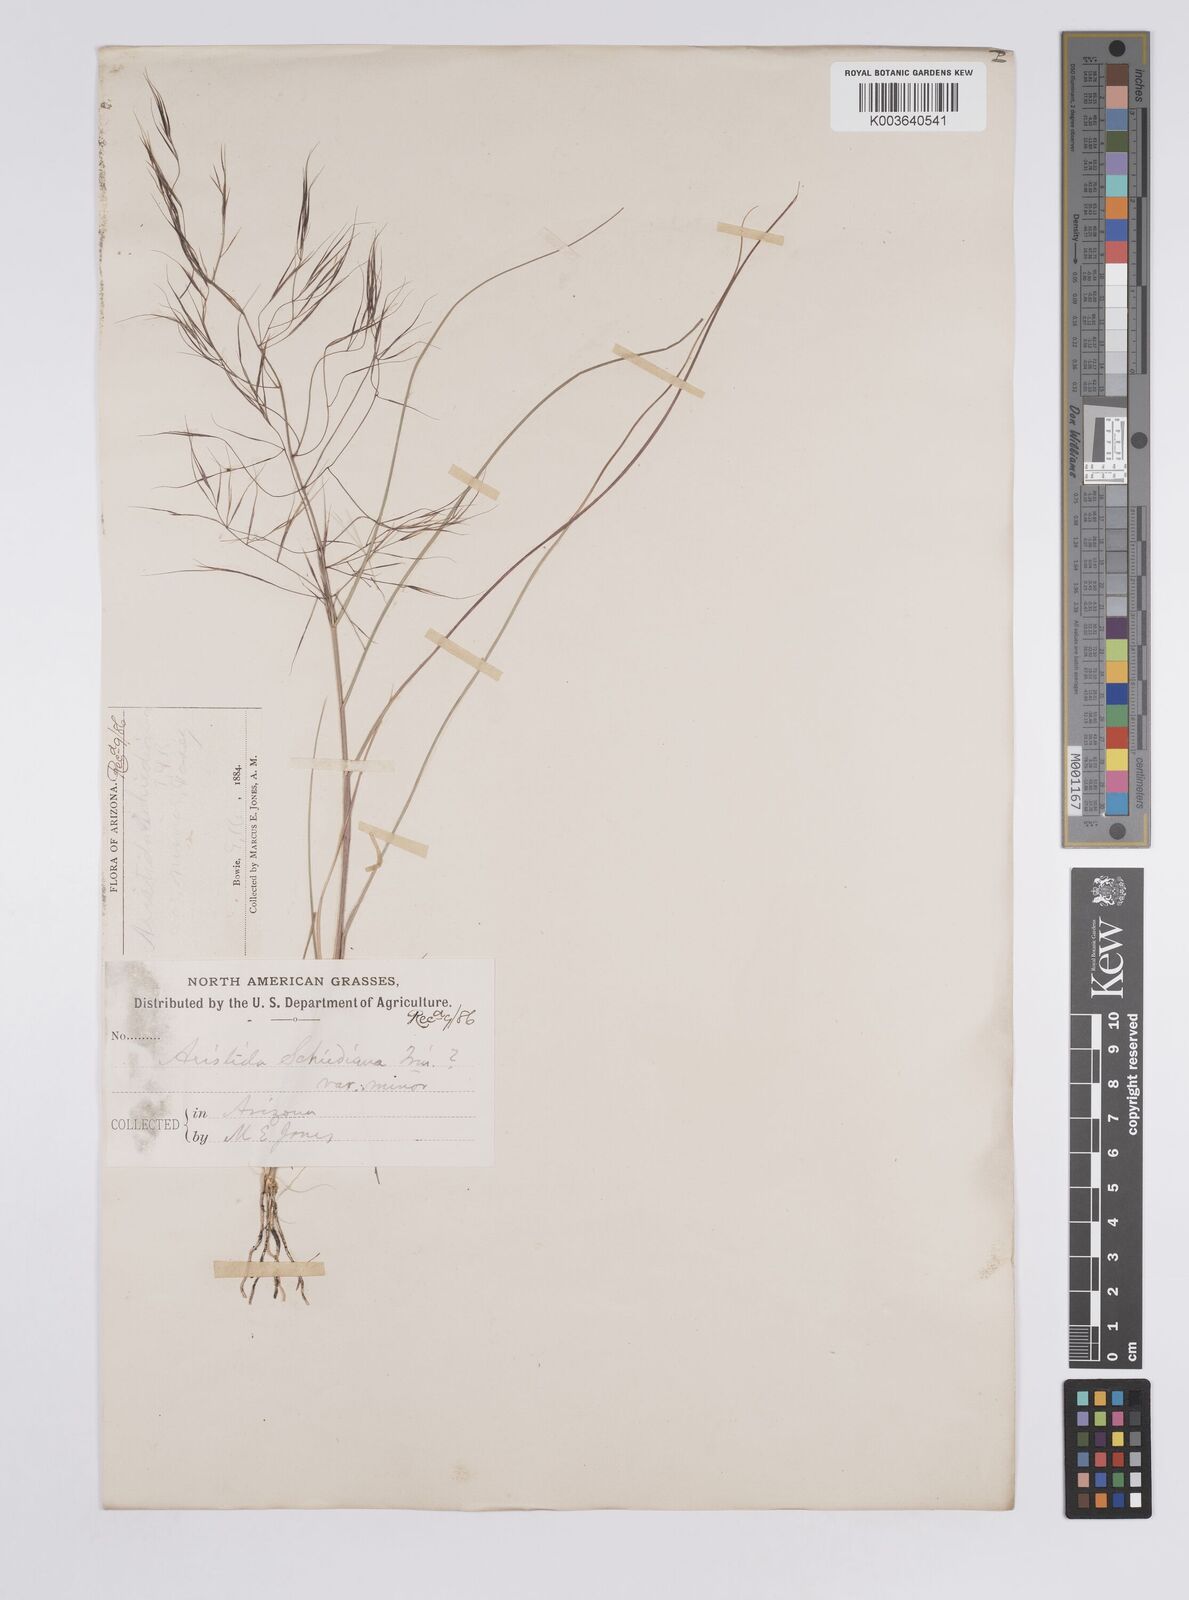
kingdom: Plantae
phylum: Tracheophyta
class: Liliopsida
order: Poales
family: Poaceae
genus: Aristida
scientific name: Aristida schiedeana
